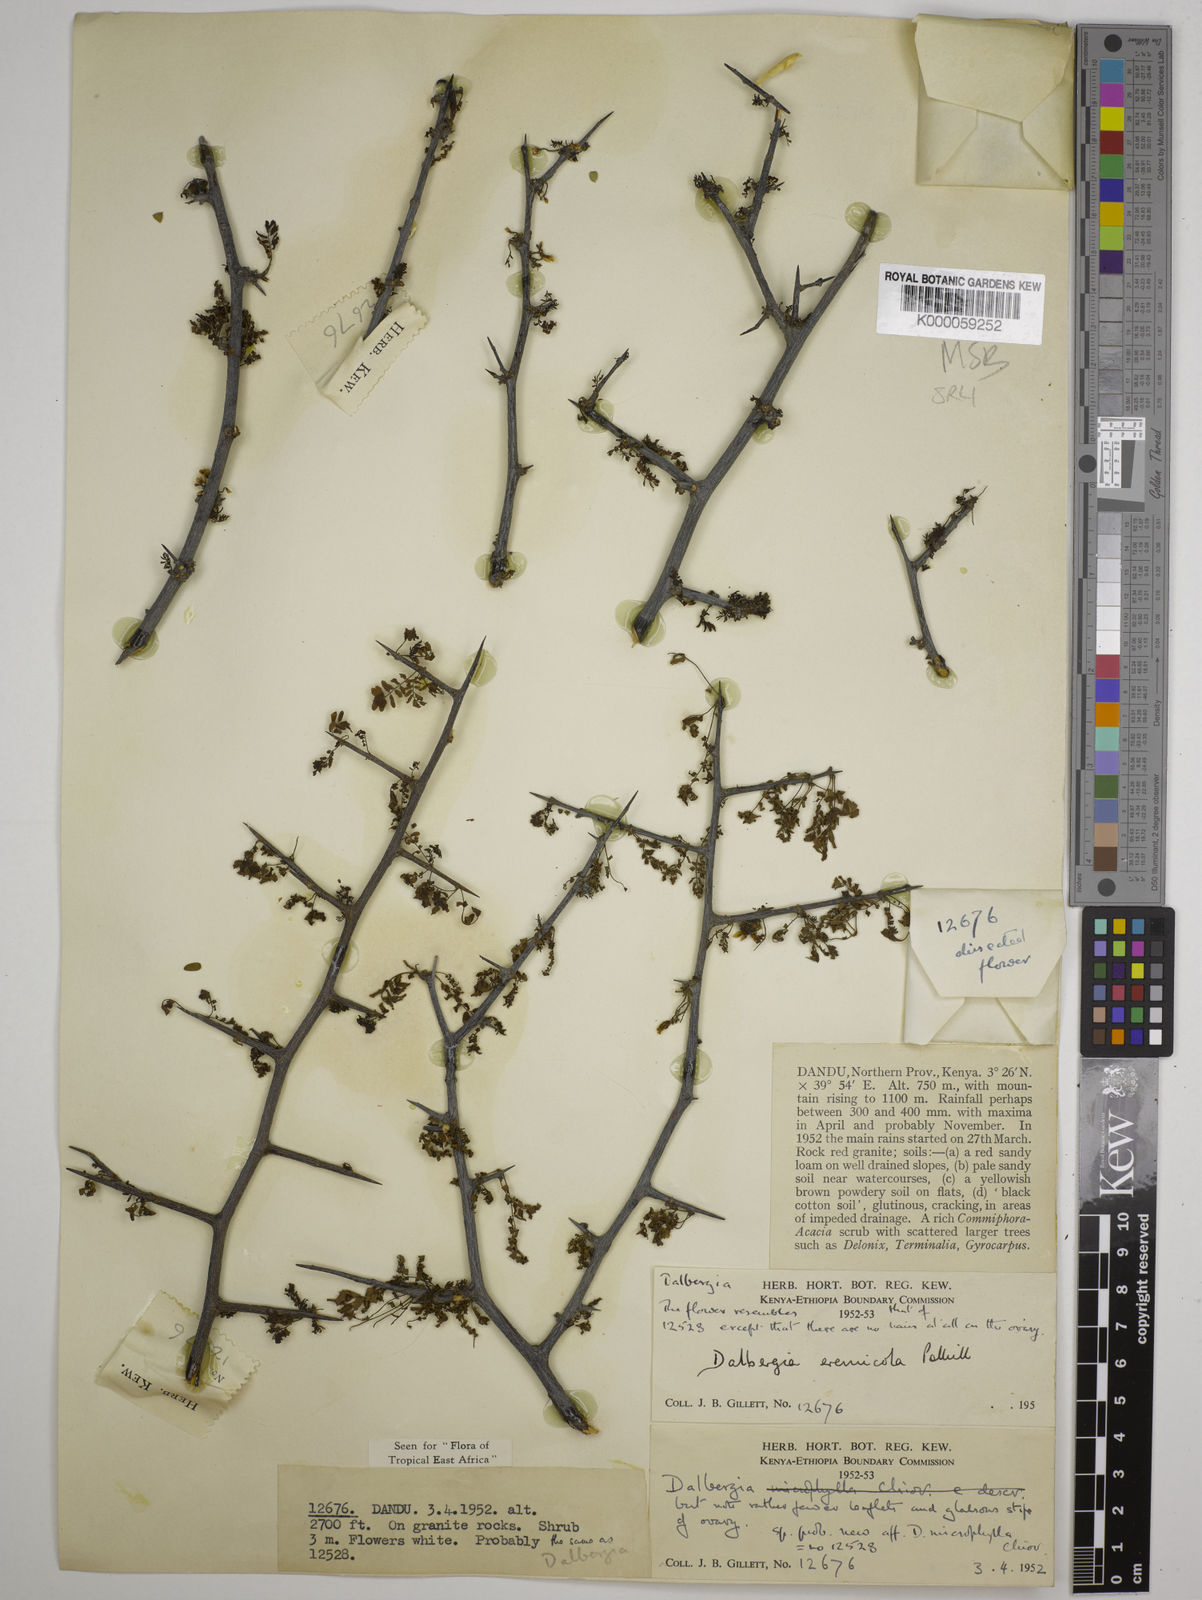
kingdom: Plantae
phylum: Tracheophyta
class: Magnoliopsida
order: Fabales
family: Fabaceae
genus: Dalbergia
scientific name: Dalbergia eremicola
